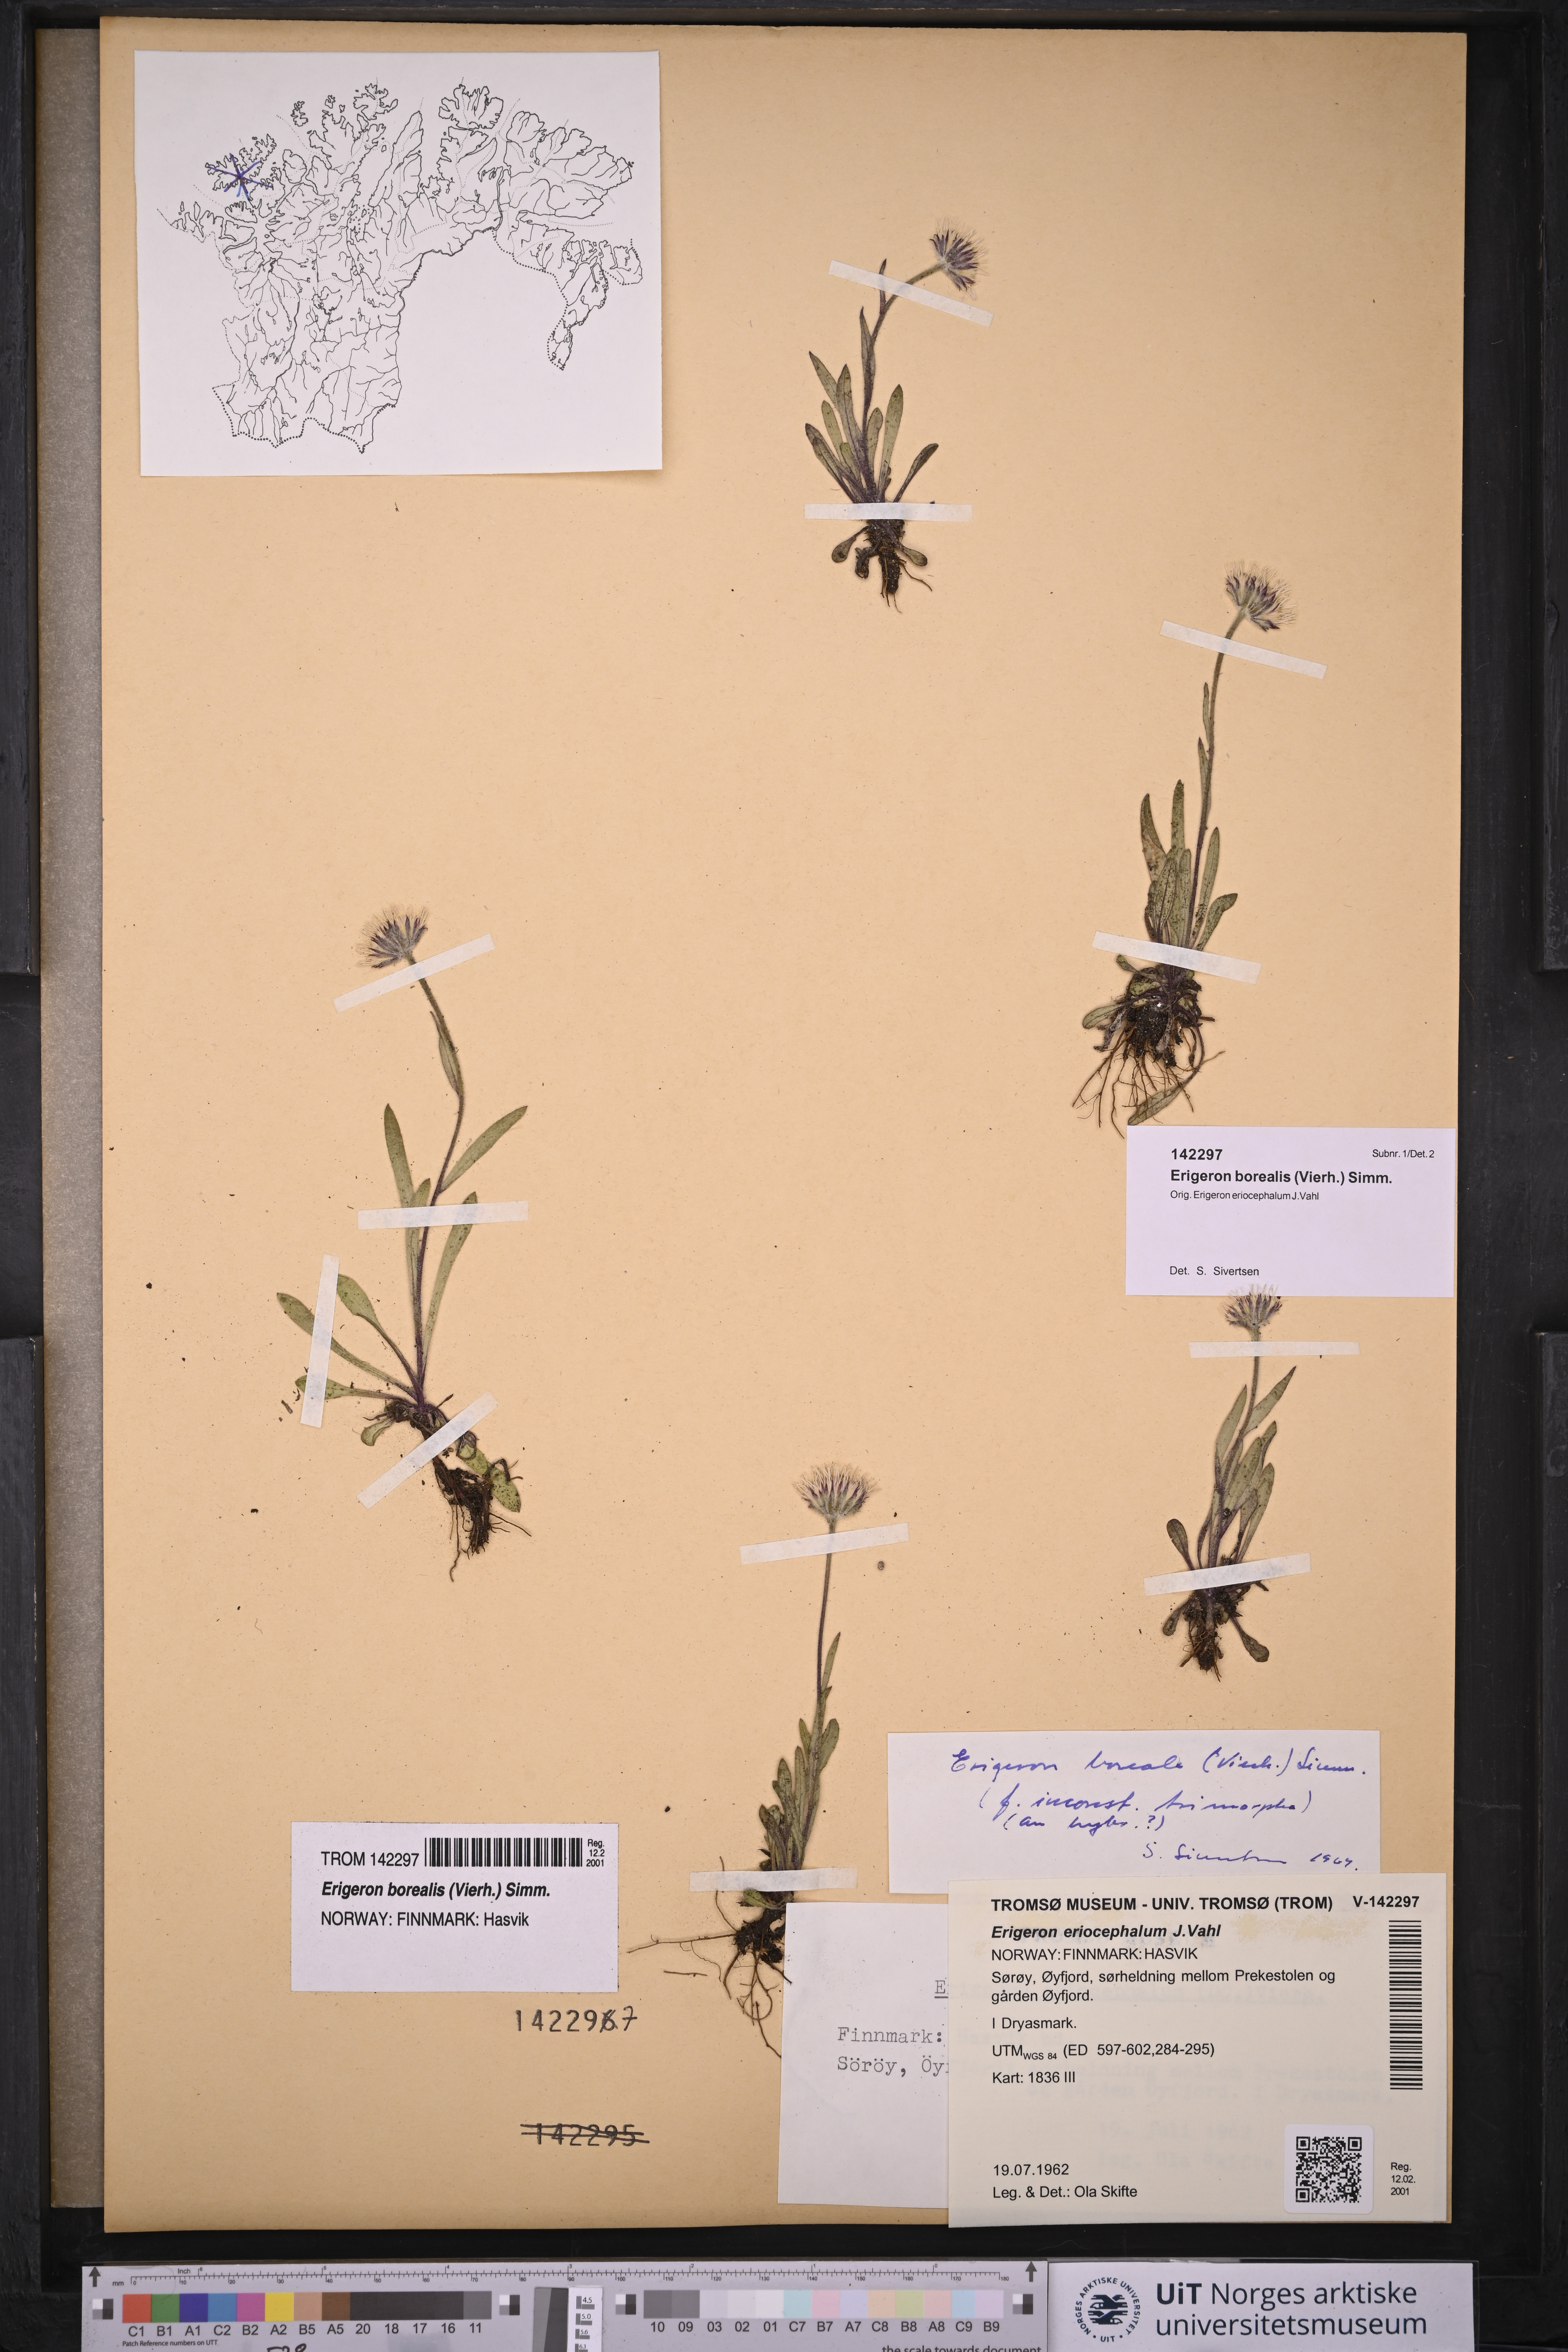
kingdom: Plantae
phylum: Tracheophyta
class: Magnoliopsida
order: Asterales
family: Asteraceae
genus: Erigeron
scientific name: Erigeron borealis
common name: Alpine fleabane
